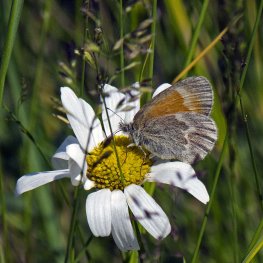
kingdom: Animalia
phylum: Arthropoda
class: Insecta
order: Lepidoptera
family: Nymphalidae
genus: Coenonympha
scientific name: Coenonympha tullia
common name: Large Heath
